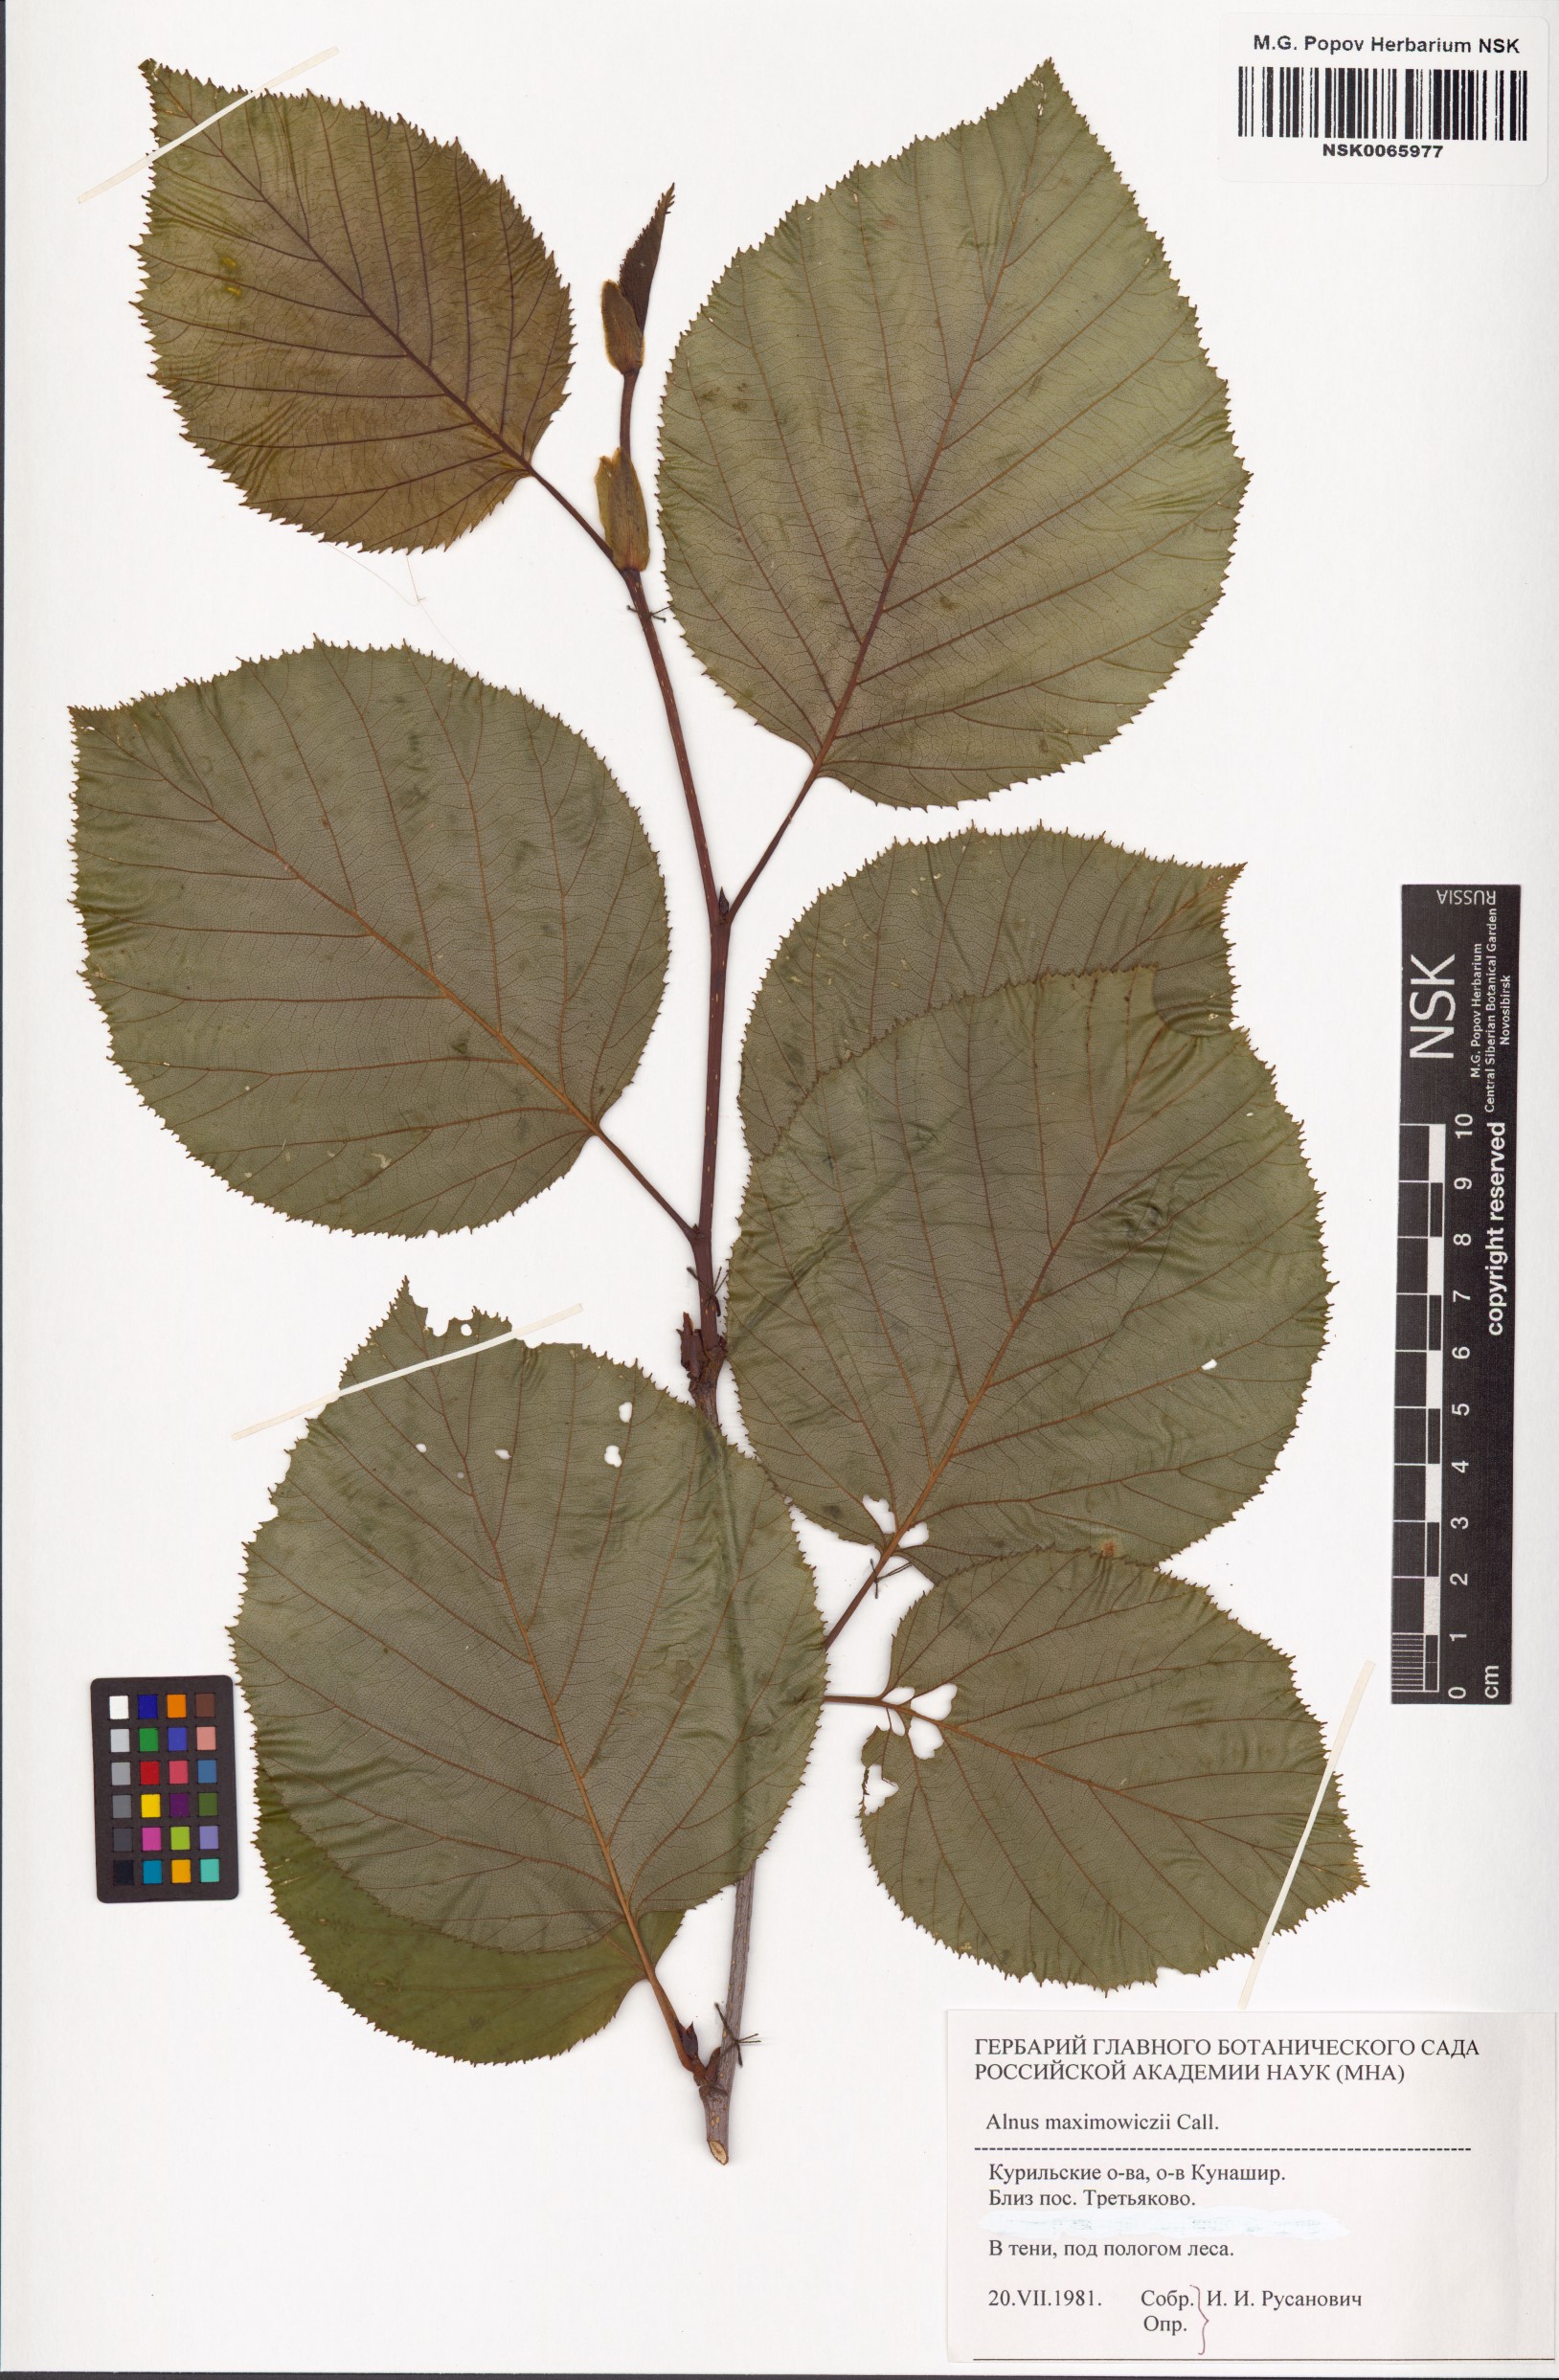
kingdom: Plantae
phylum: Tracheophyta
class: Magnoliopsida
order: Fagales
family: Betulaceae
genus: Alnus
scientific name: Alnus maximowiczii
